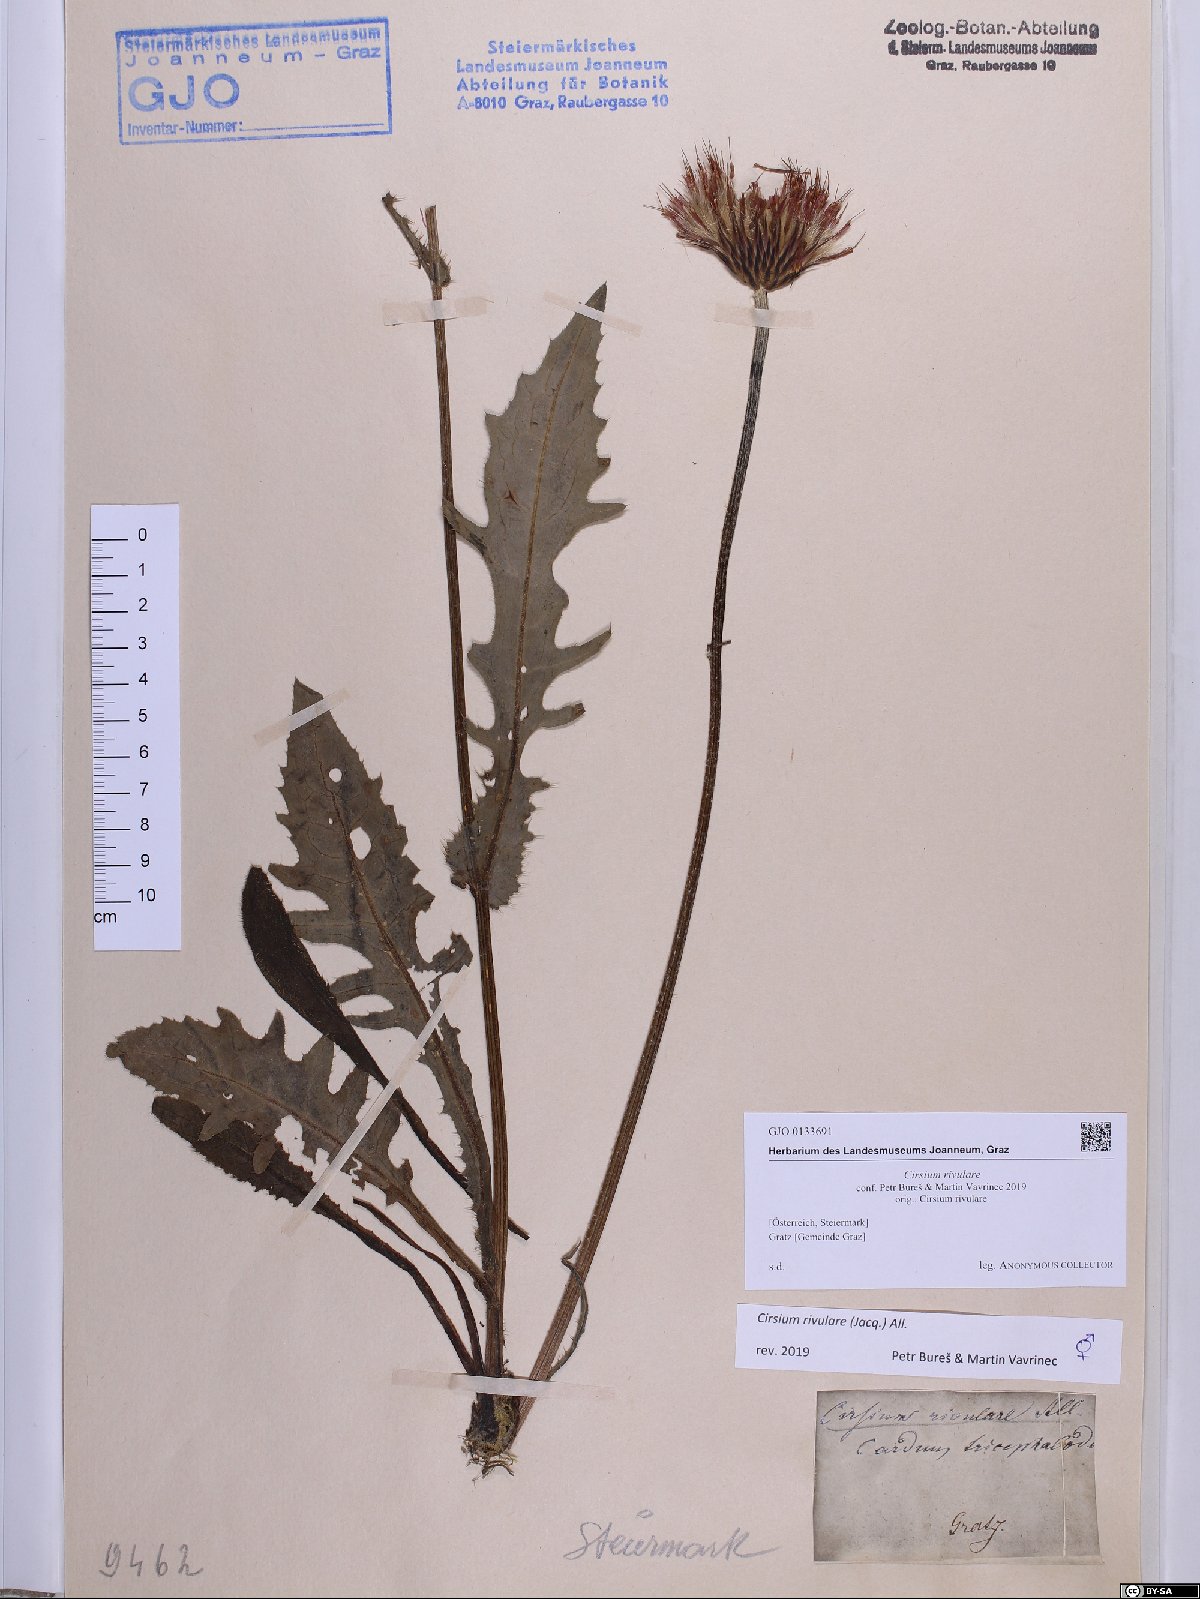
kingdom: Plantae
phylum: Tracheophyta
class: Magnoliopsida
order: Asterales
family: Asteraceae
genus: Cirsium
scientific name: Cirsium rivulare
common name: Brook thistle
